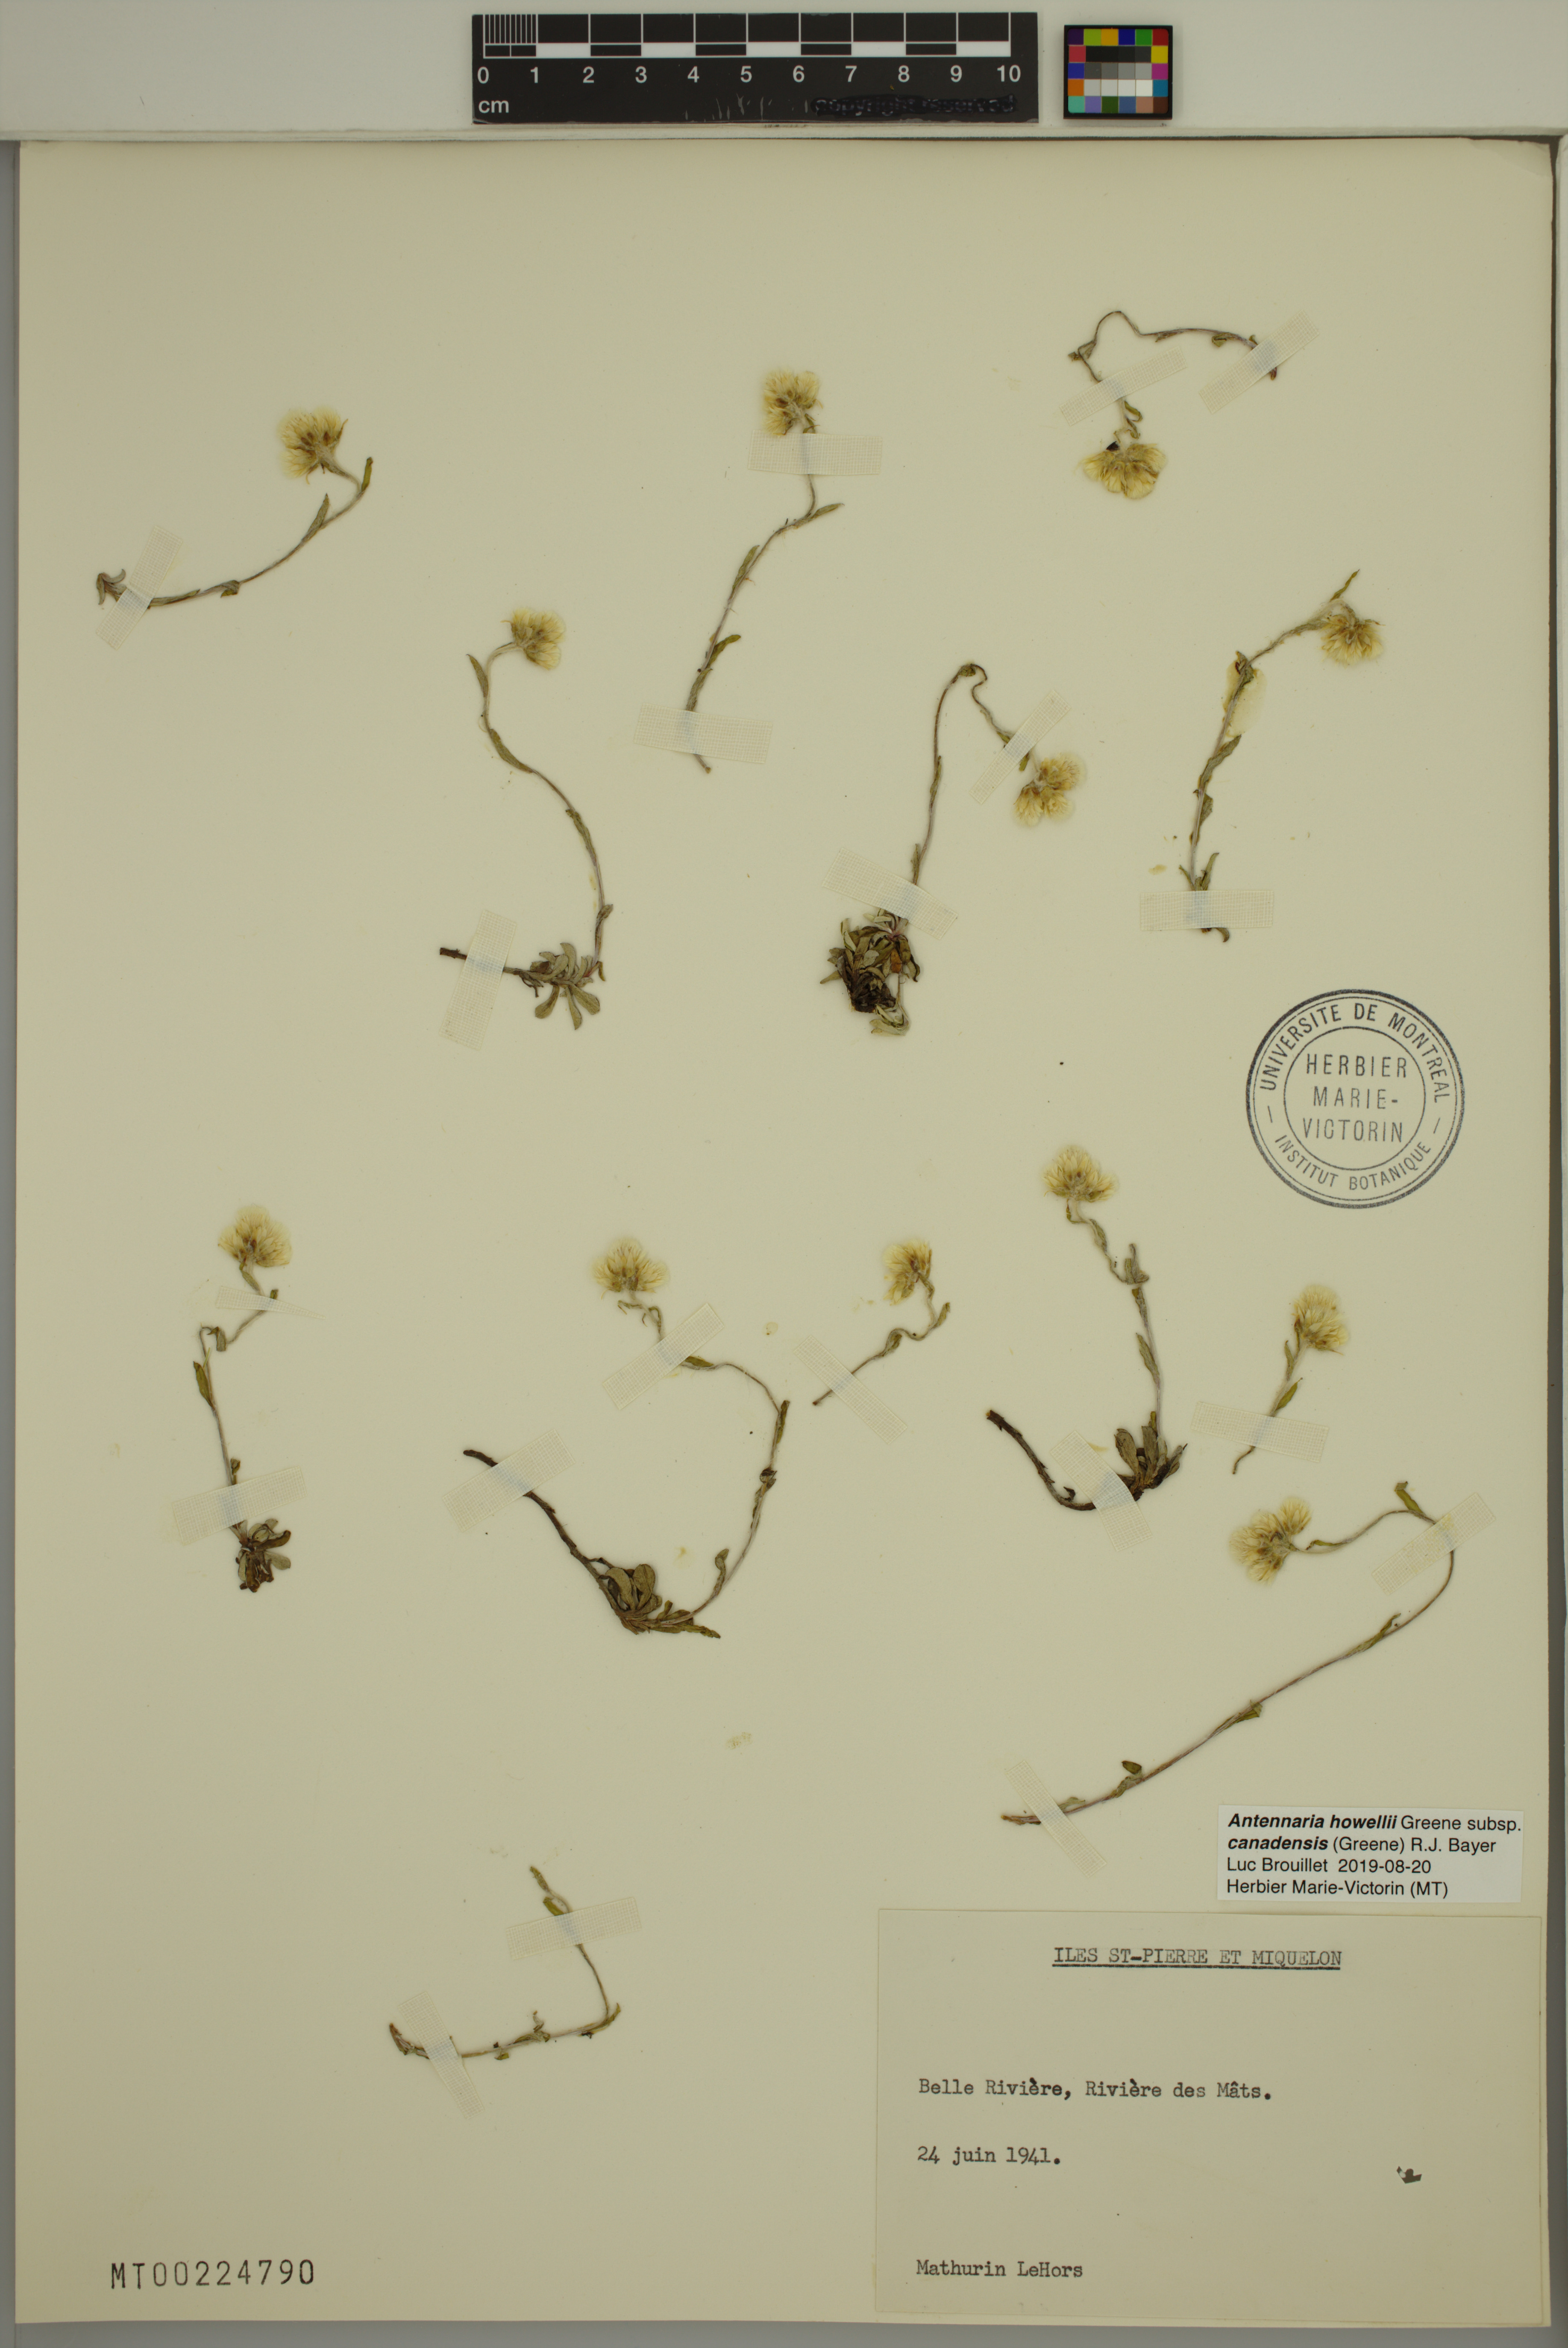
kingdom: Plantae
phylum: Tracheophyta
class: Magnoliopsida
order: Asterales
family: Asteraceae
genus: Antennaria
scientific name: Antennaria howellii
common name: Howell's pussytoes
